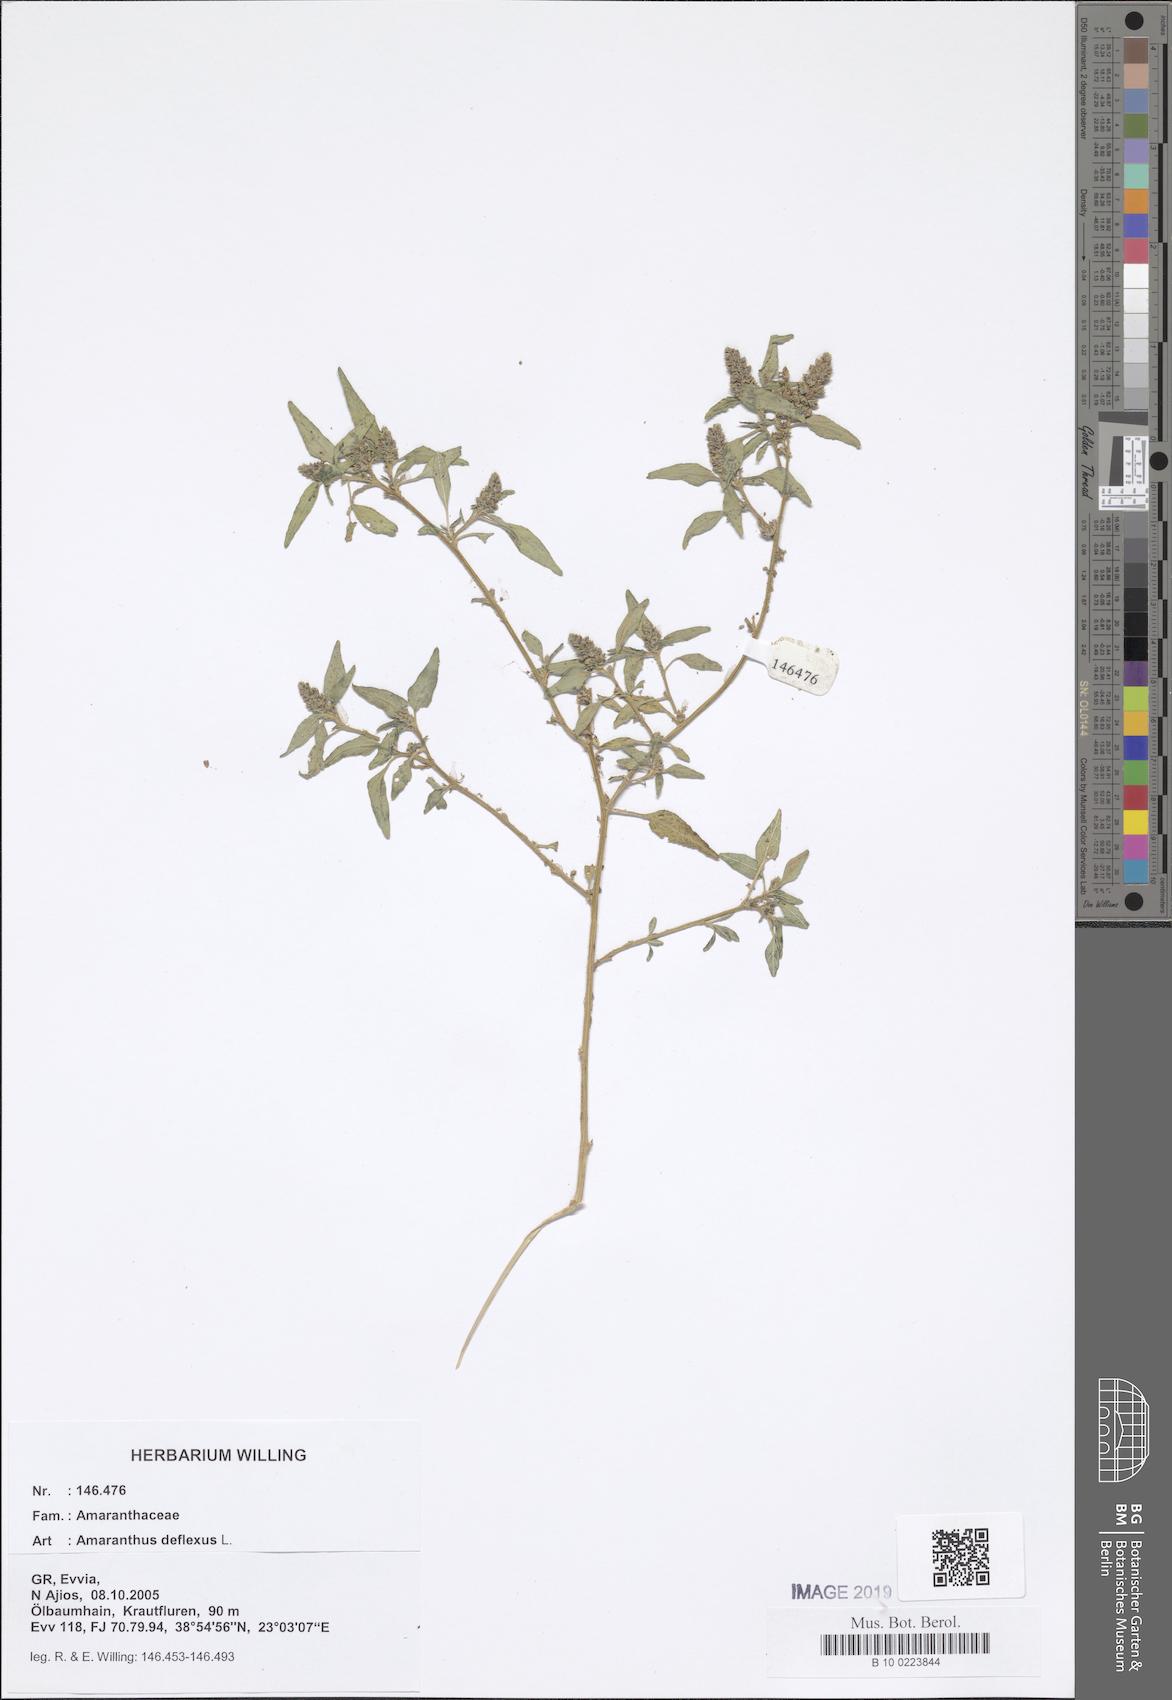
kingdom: Plantae
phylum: Tracheophyta
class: Magnoliopsida
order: Caryophyllales
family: Amaranthaceae
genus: Amaranthus
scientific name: Amaranthus deflexus
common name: Perennial pigweed
